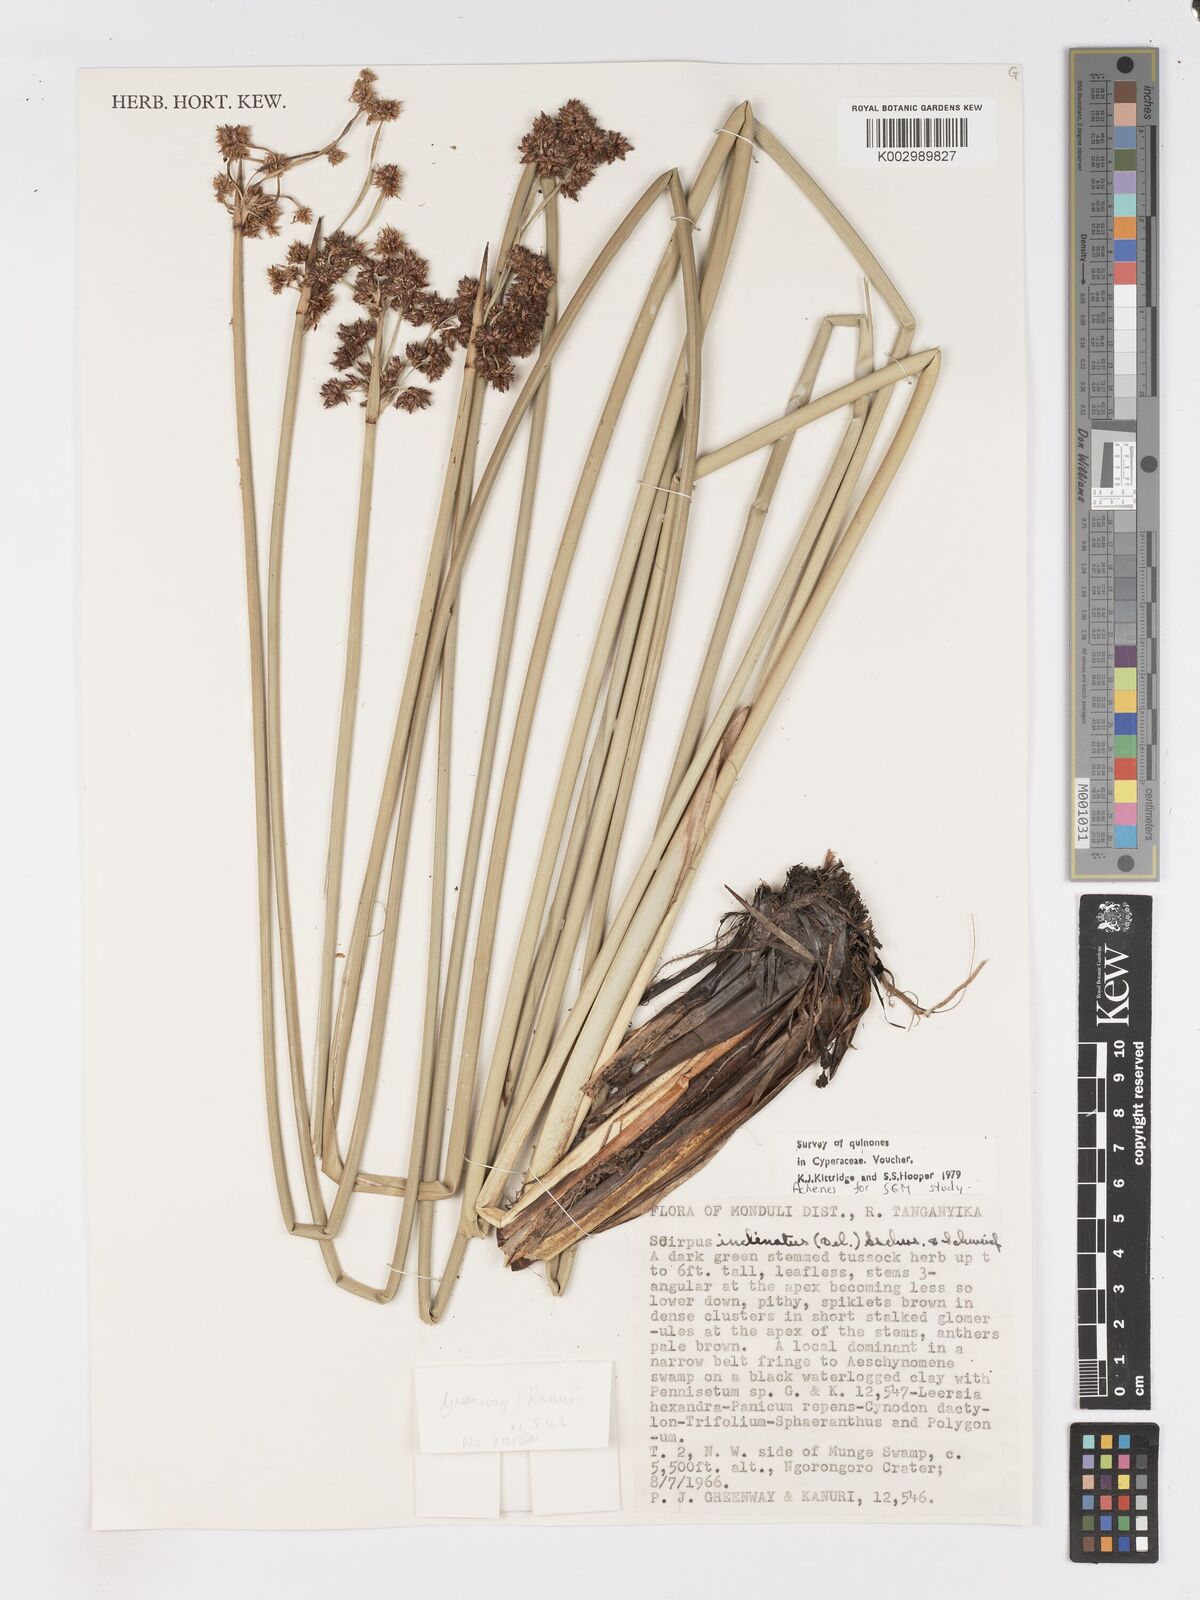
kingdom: Plantae
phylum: Tracheophyta
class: Liliopsida
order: Poales
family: Cyperaceae
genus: Schoenoplectiella
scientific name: Schoenoplectiella brachyceras
